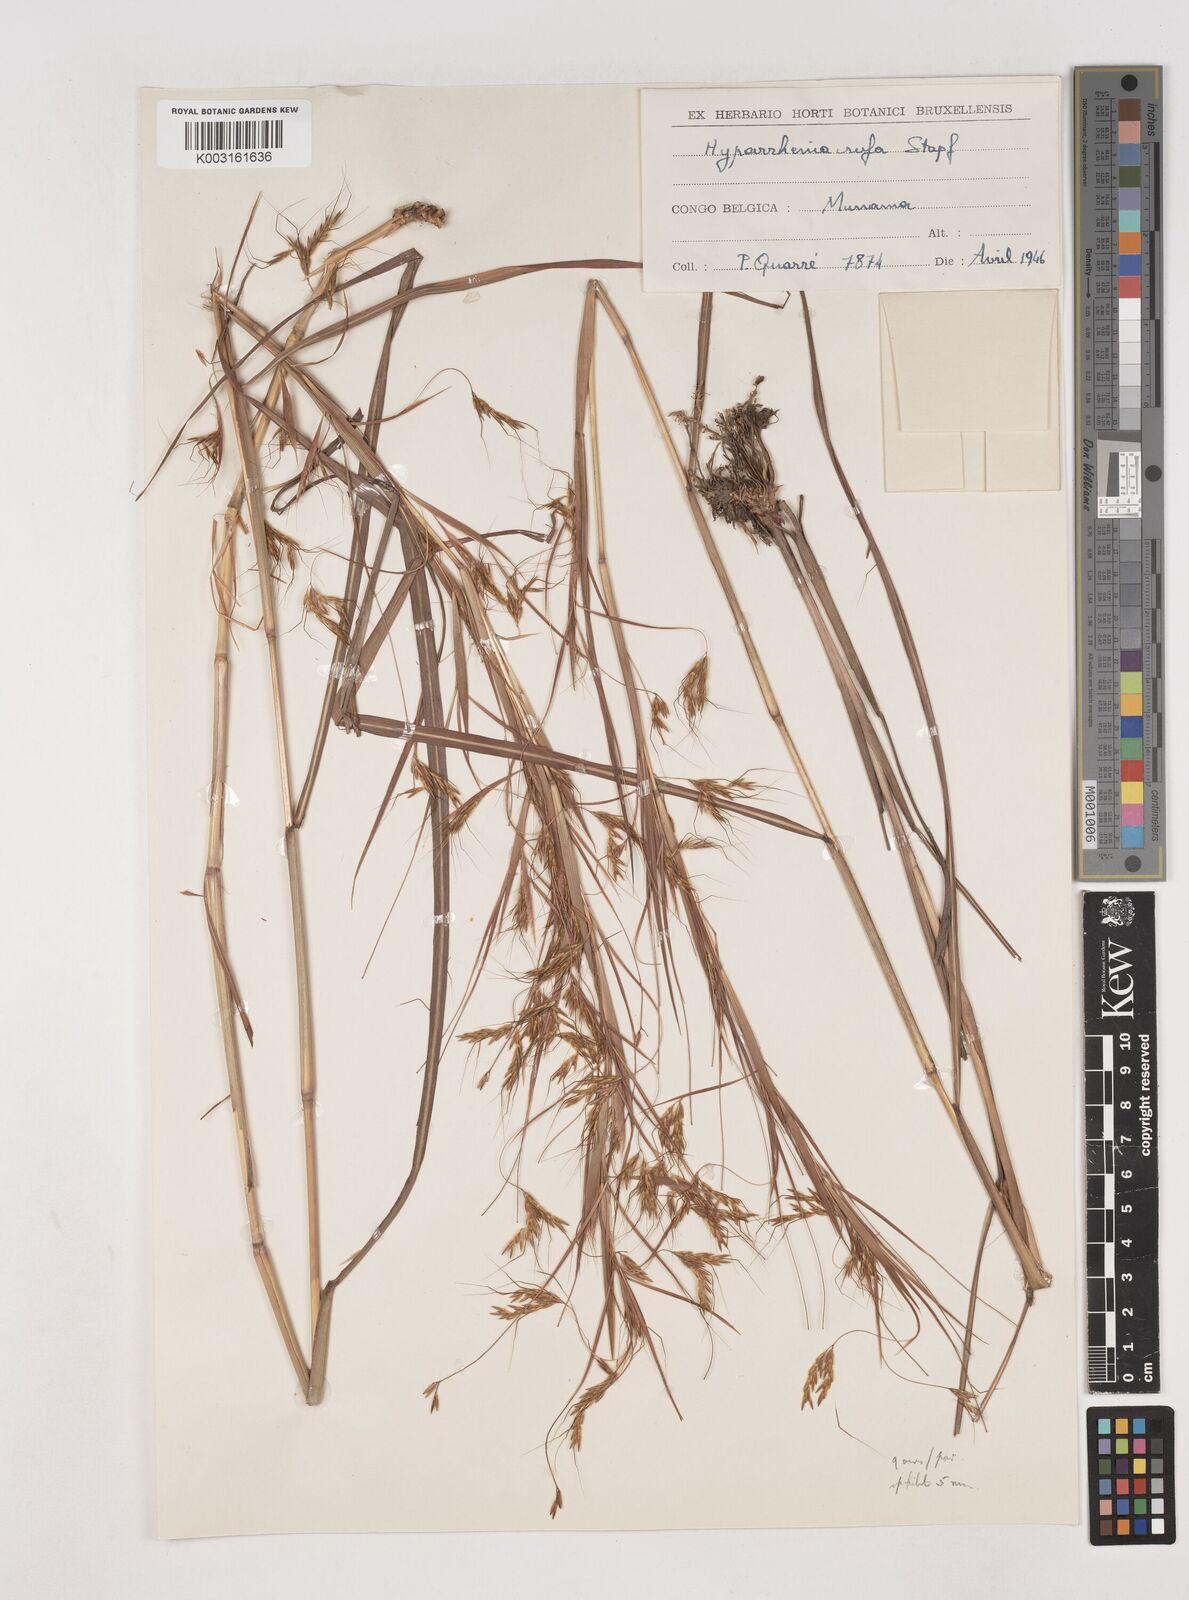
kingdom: Plantae
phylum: Tracheophyta
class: Liliopsida
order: Poales
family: Poaceae
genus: Hyparrhenia
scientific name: Hyparrhenia rufa
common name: Jaraguagrass
